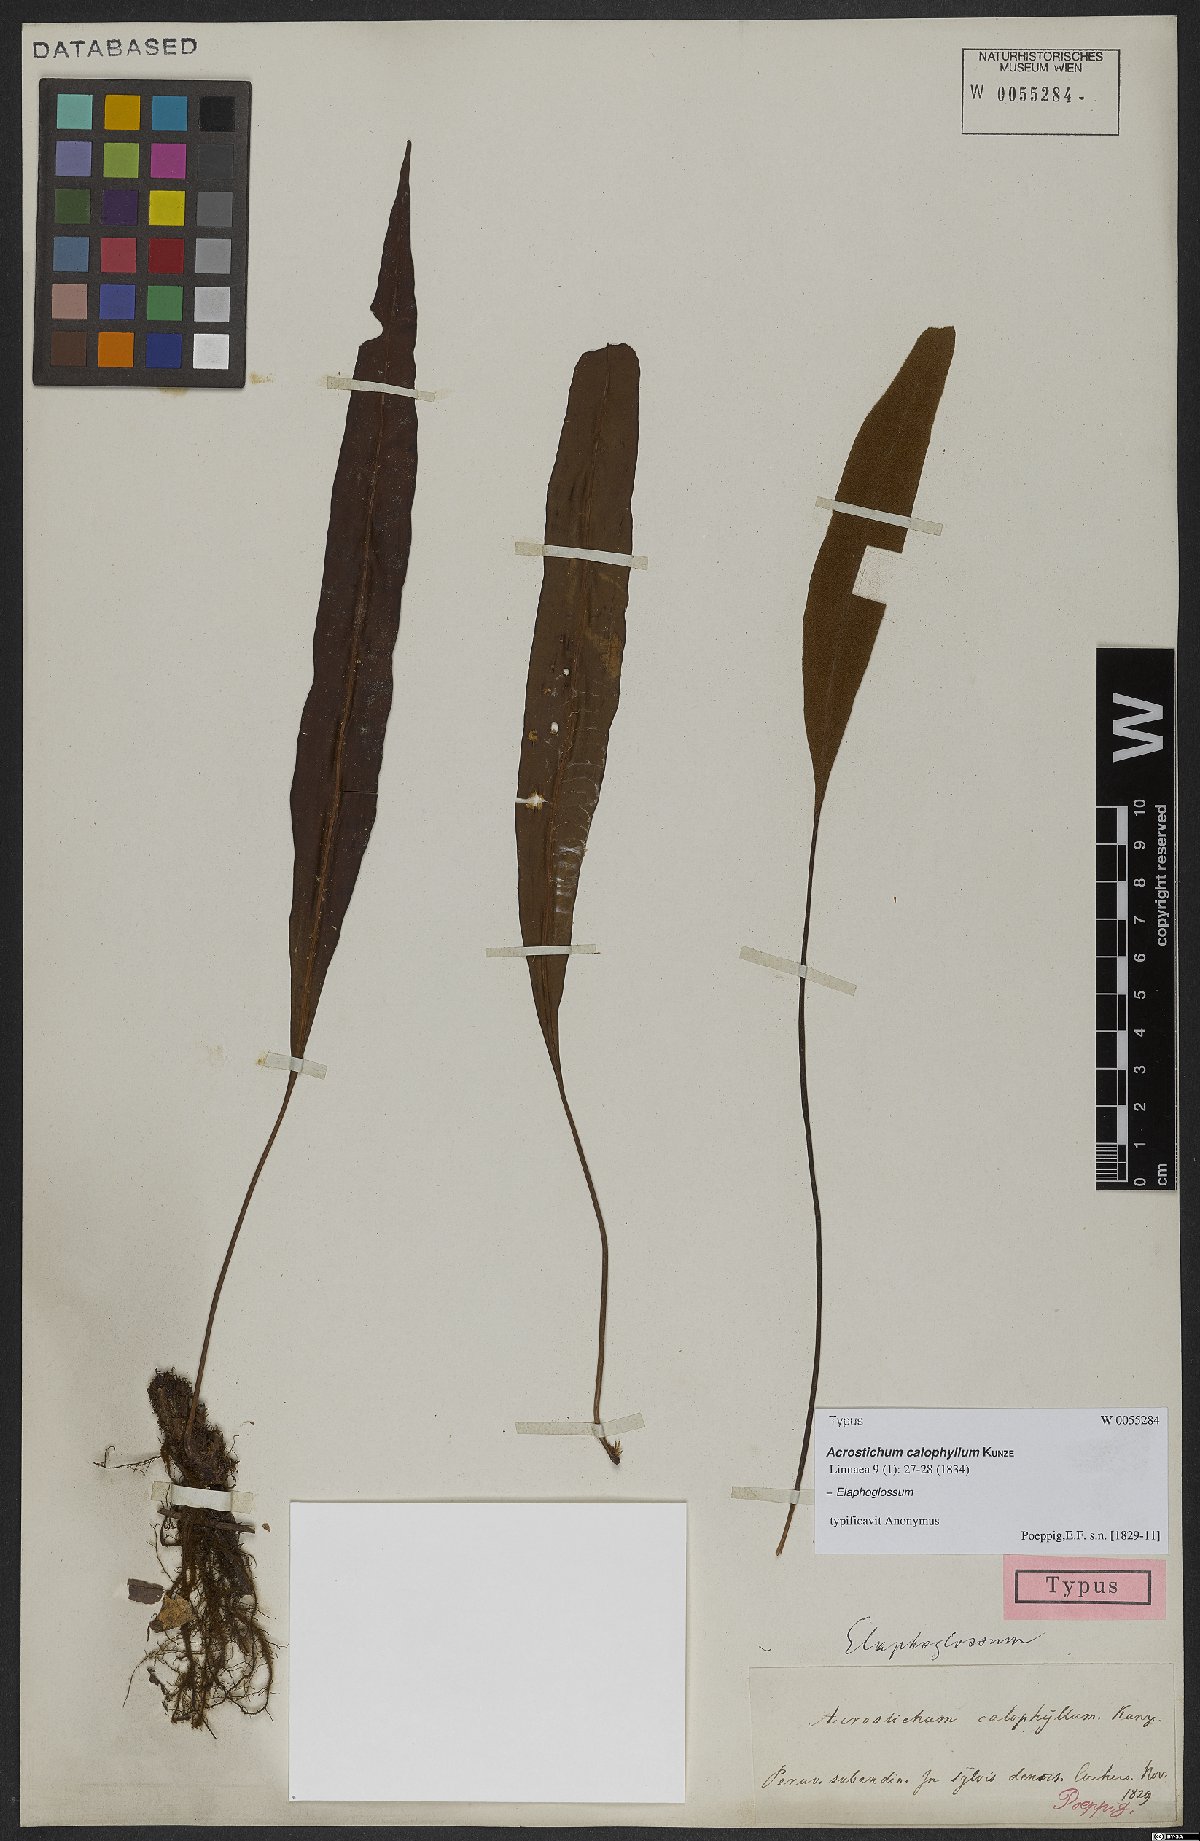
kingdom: Plantae
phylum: Tracheophyta
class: Polypodiopsida
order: Polypodiales
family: Dryopteridaceae
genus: Elaphoglossum
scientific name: Elaphoglossum
